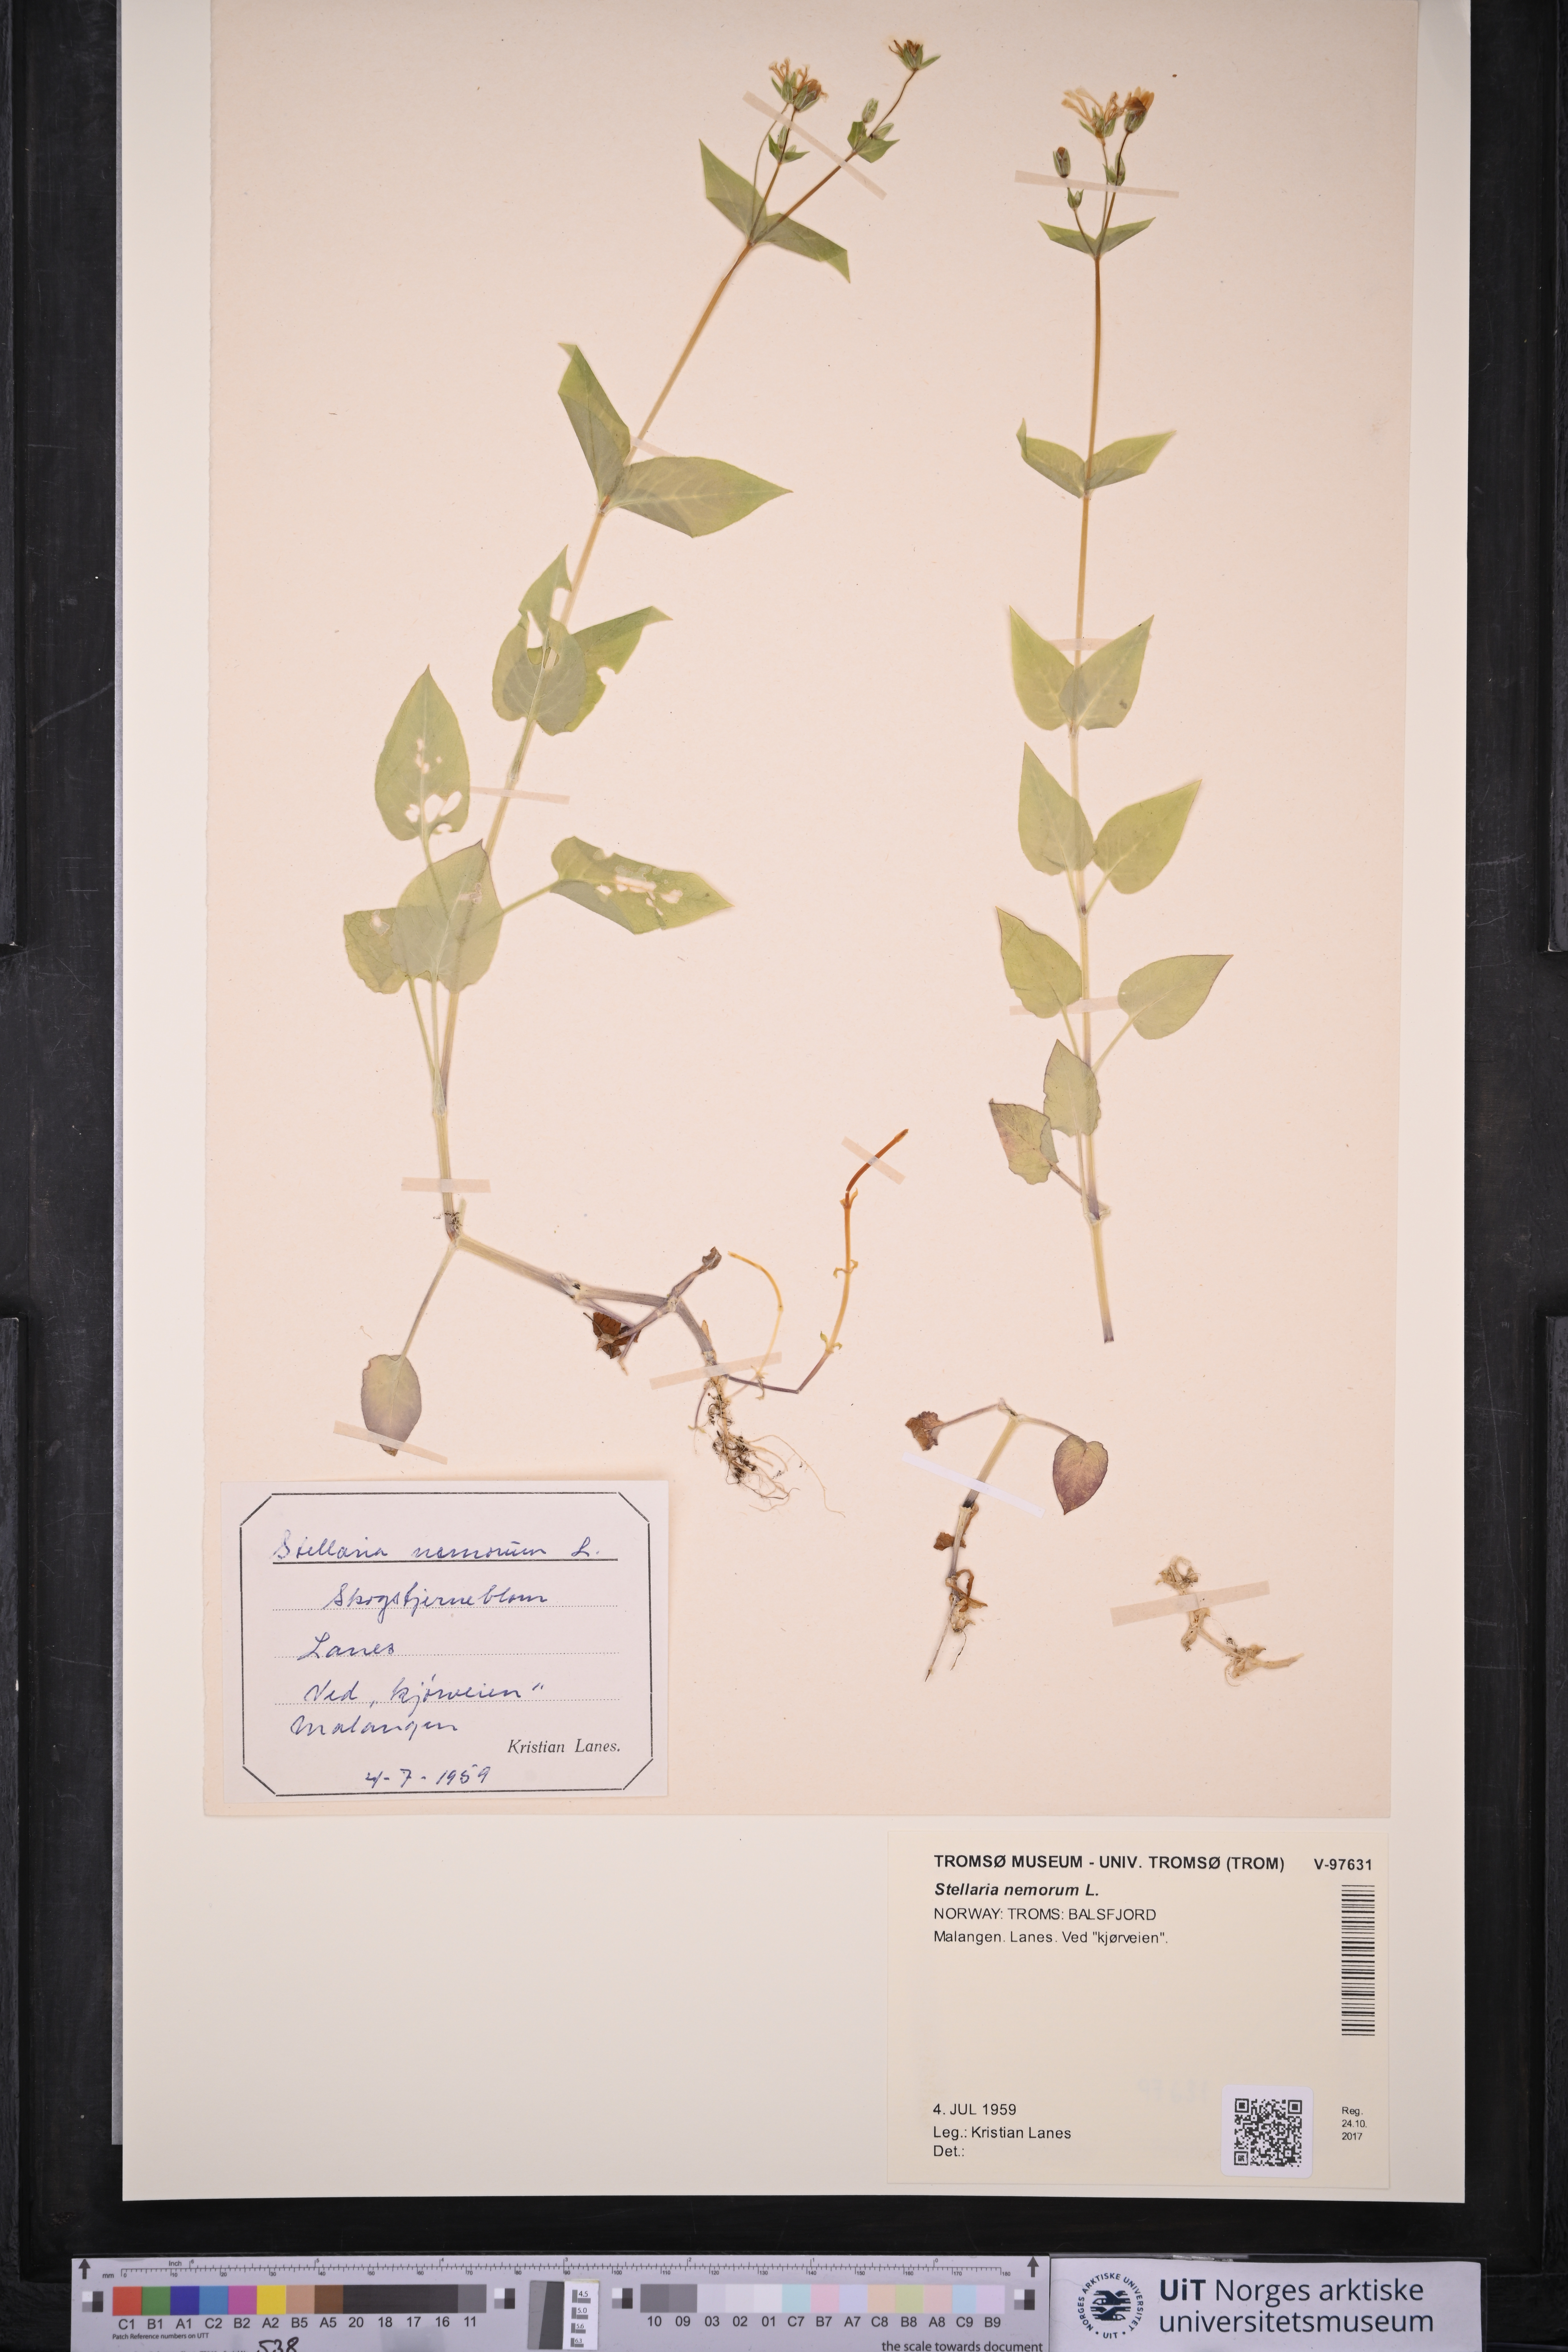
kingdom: Plantae
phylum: Tracheophyta
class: Magnoliopsida
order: Caryophyllales
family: Caryophyllaceae
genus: Stellaria
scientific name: Stellaria nemorum
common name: Wood stitchwort
